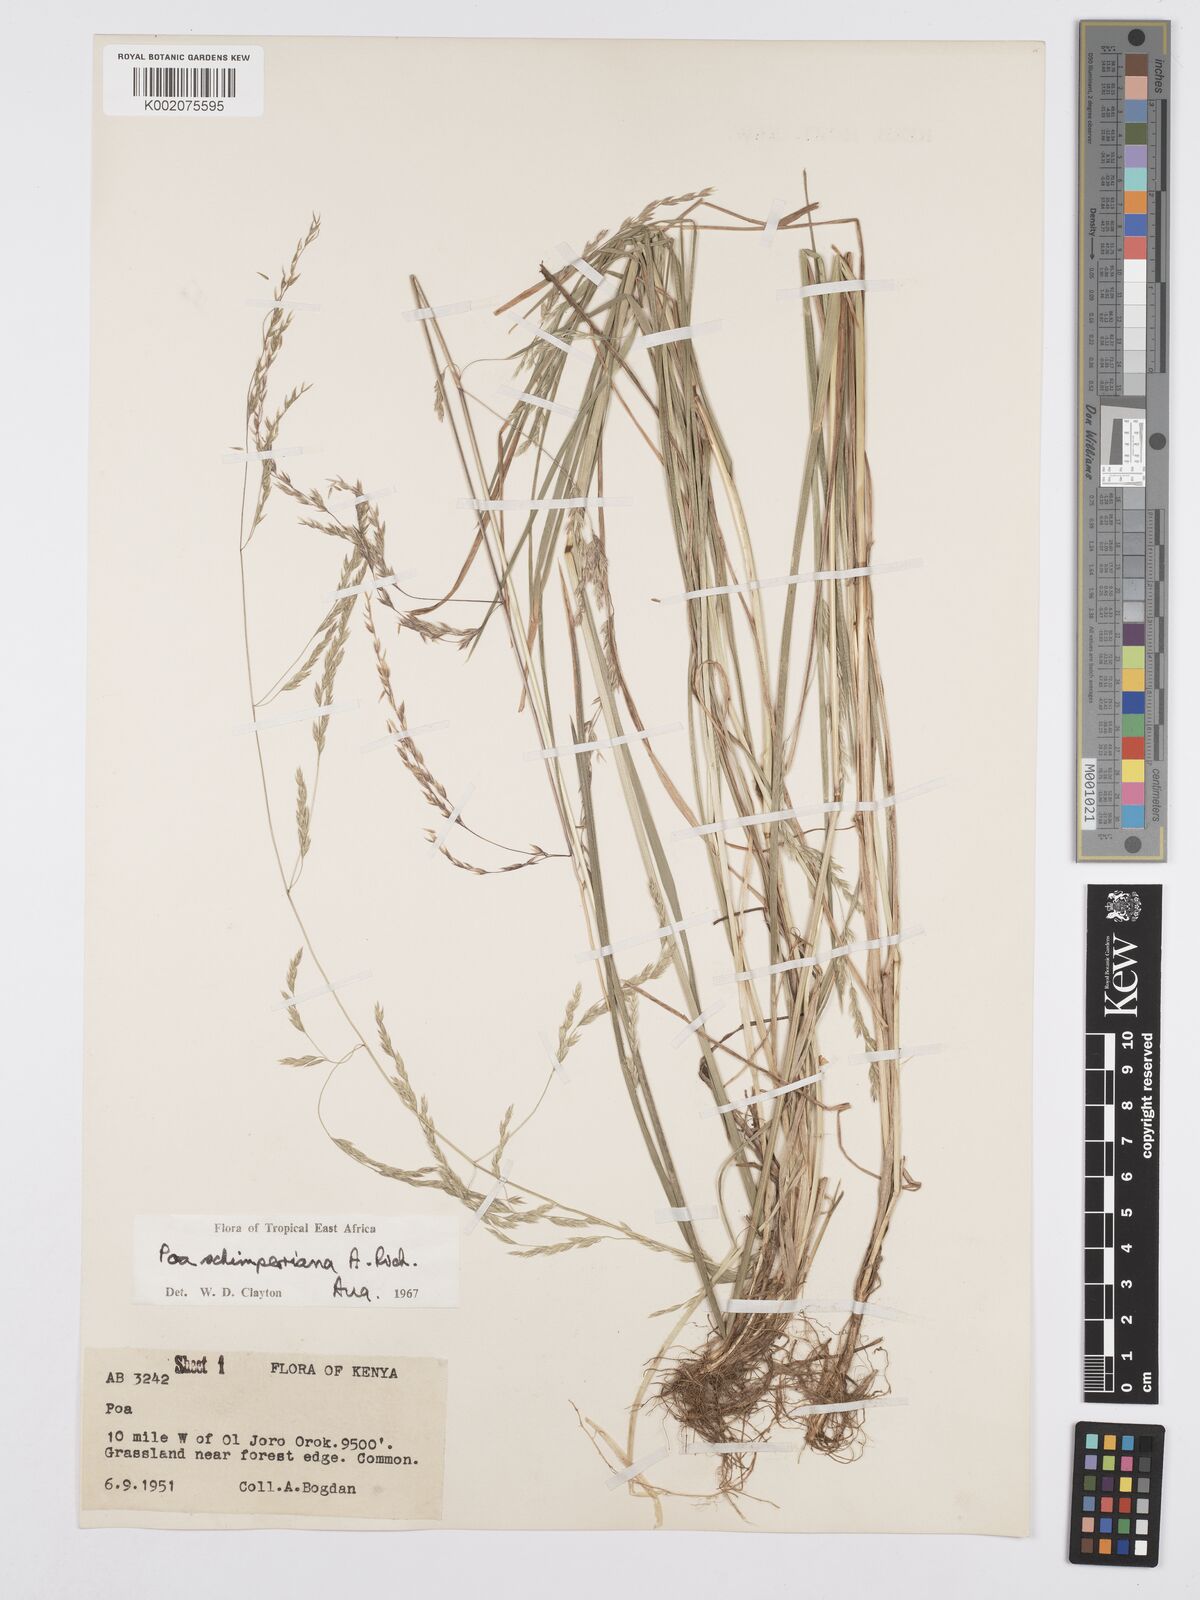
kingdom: Plantae
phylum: Tracheophyta
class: Liliopsida
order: Poales
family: Poaceae
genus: Poa
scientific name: Poa schimperiana
